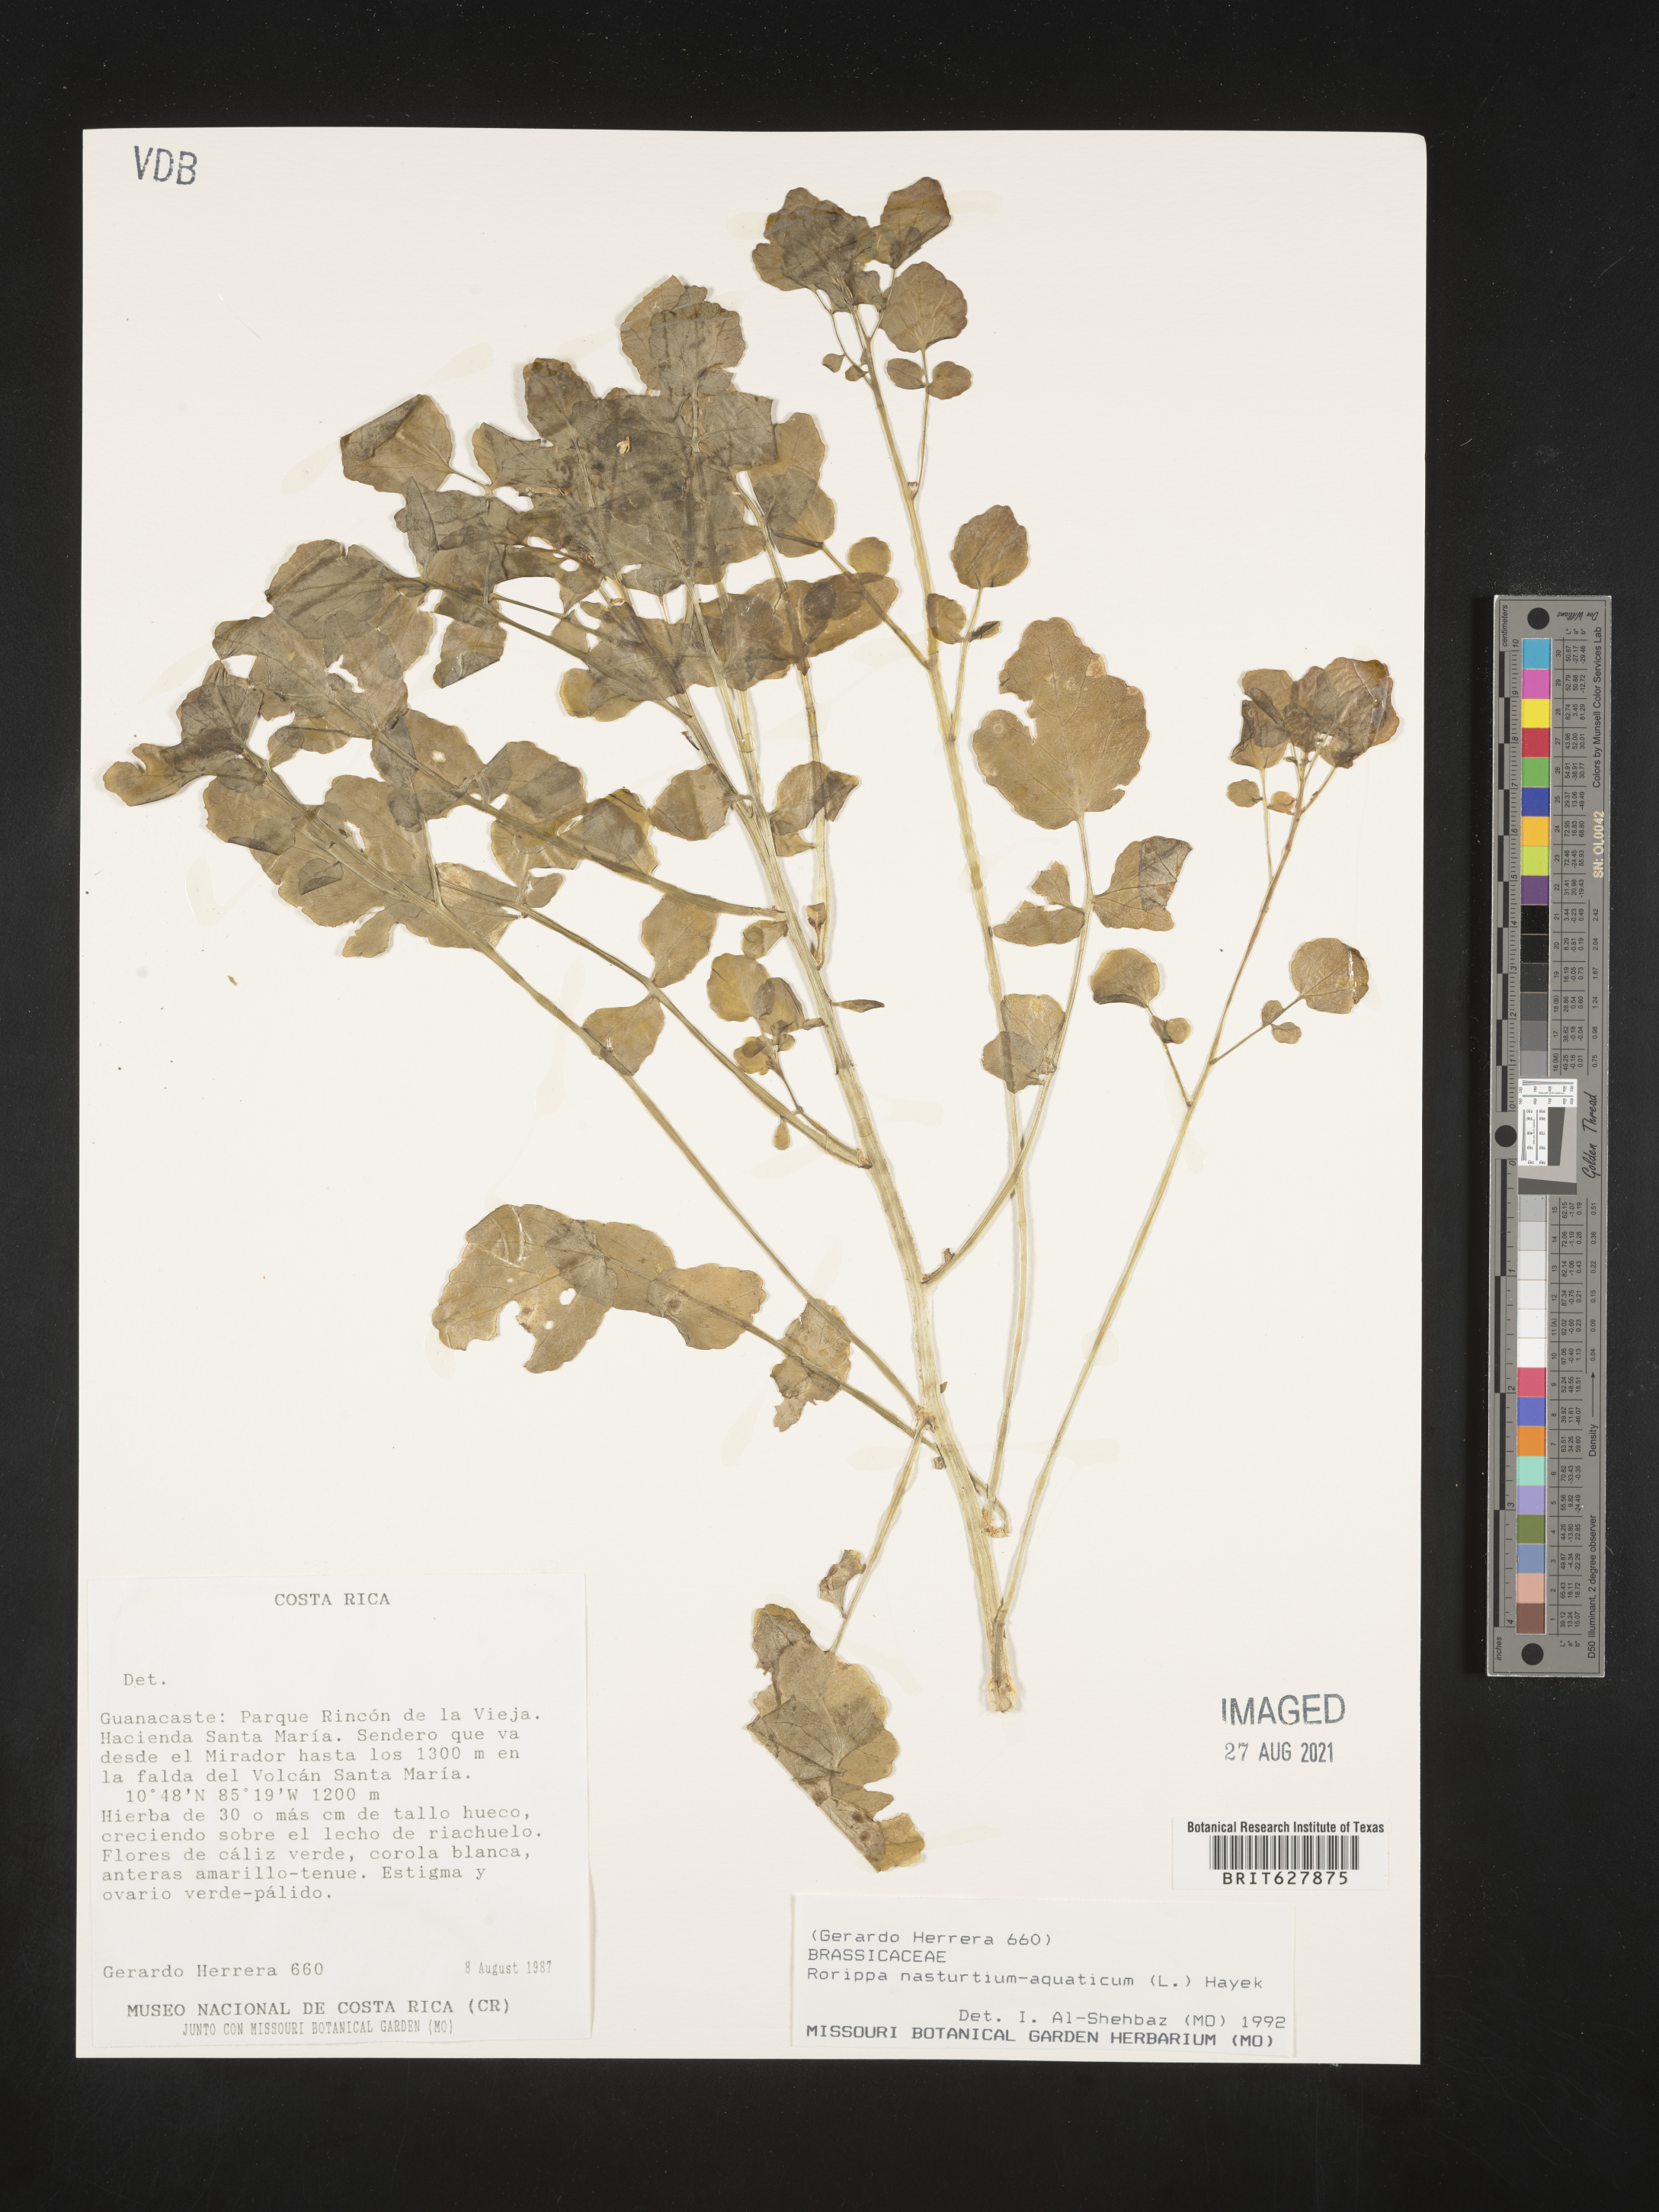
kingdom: Plantae
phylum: Tracheophyta
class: Magnoliopsida
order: Brassicales
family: Brassicaceae
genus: Nasturtium
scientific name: Nasturtium officinale
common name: Watercress
